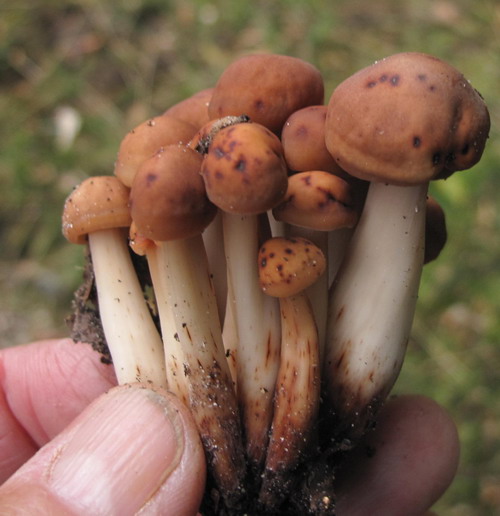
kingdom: Fungi
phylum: Basidiomycota
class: Agaricomycetes
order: Agaricales
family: Omphalotaceae
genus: Gymnopus
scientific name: Gymnopus fusipes
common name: tenstokket fladhat
